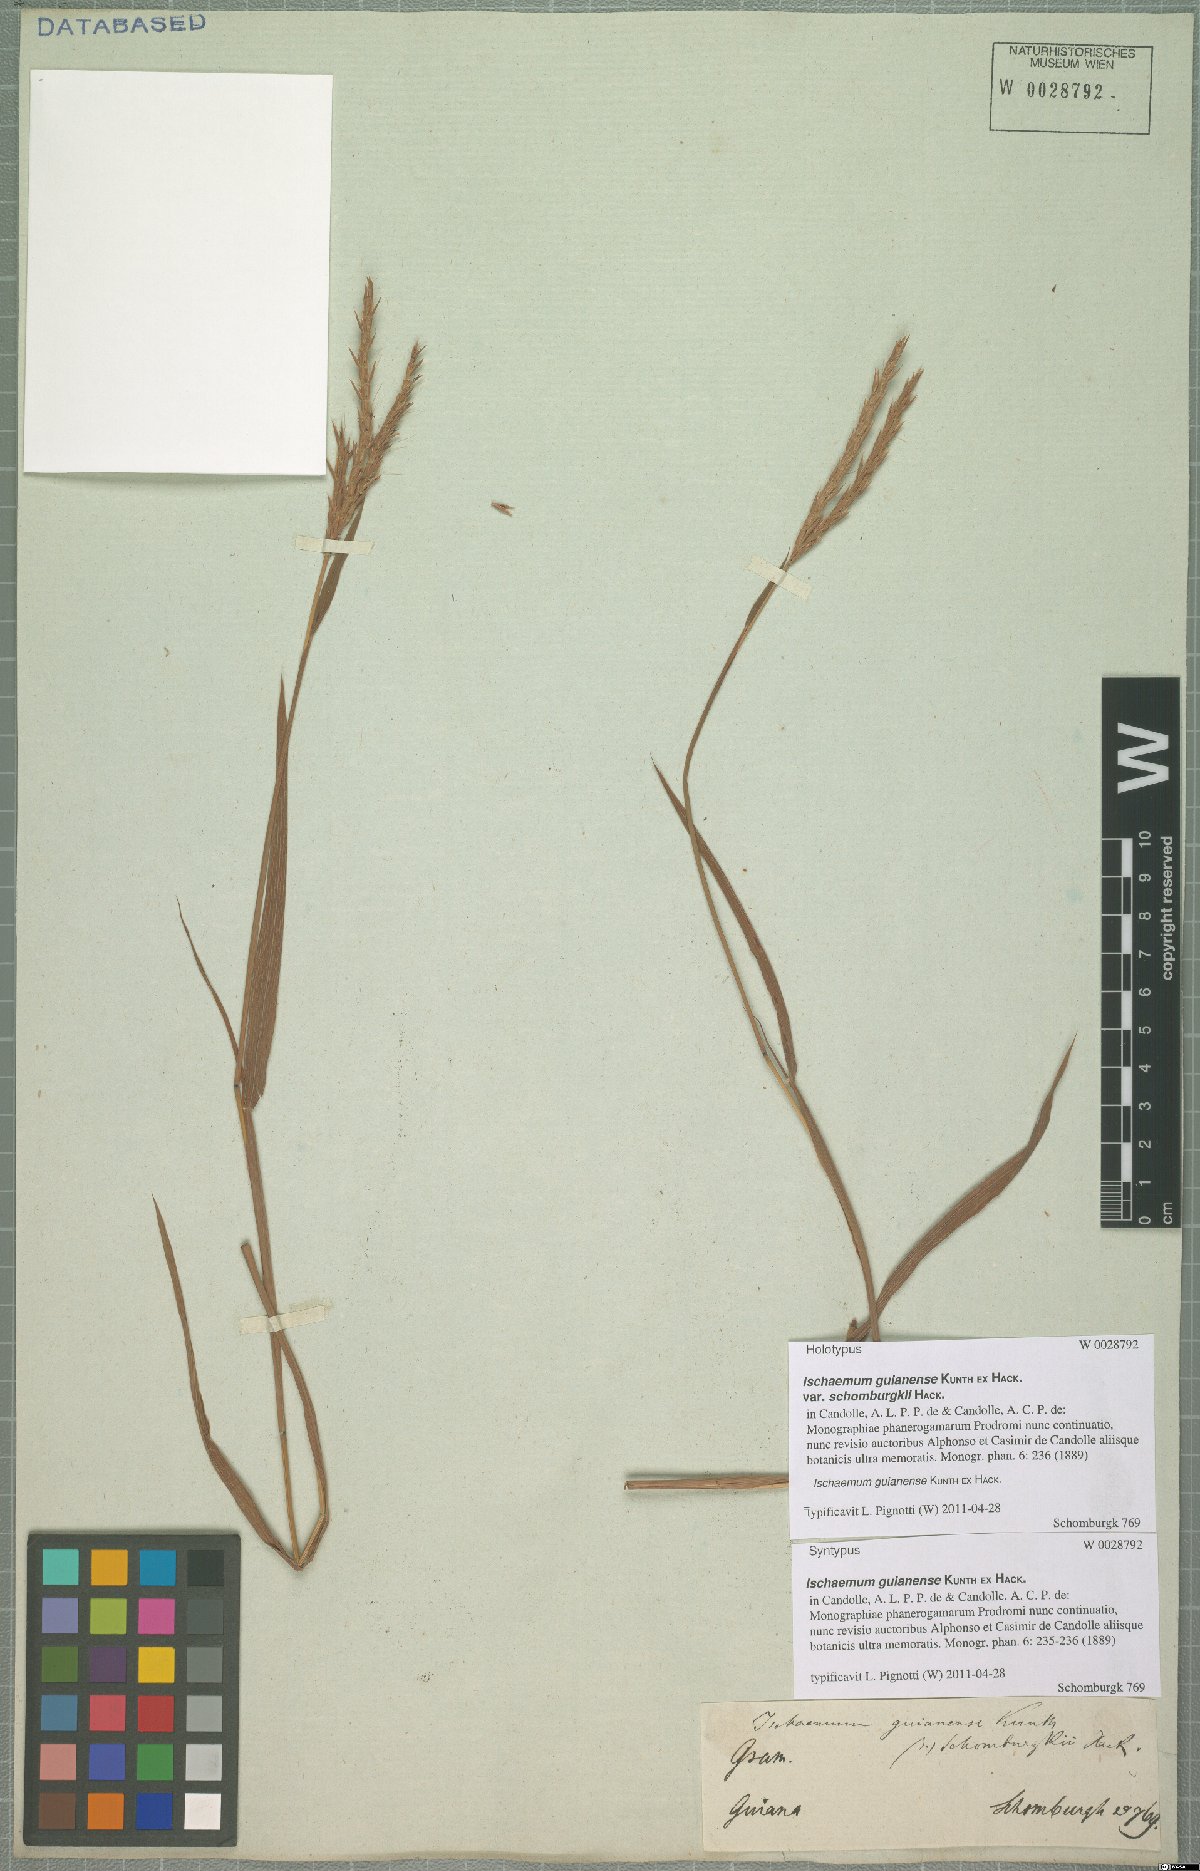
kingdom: Plantae
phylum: Tracheophyta
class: Liliopsida
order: Poales
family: Poaceae
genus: Ischaemum
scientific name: Ischaemum guianense
